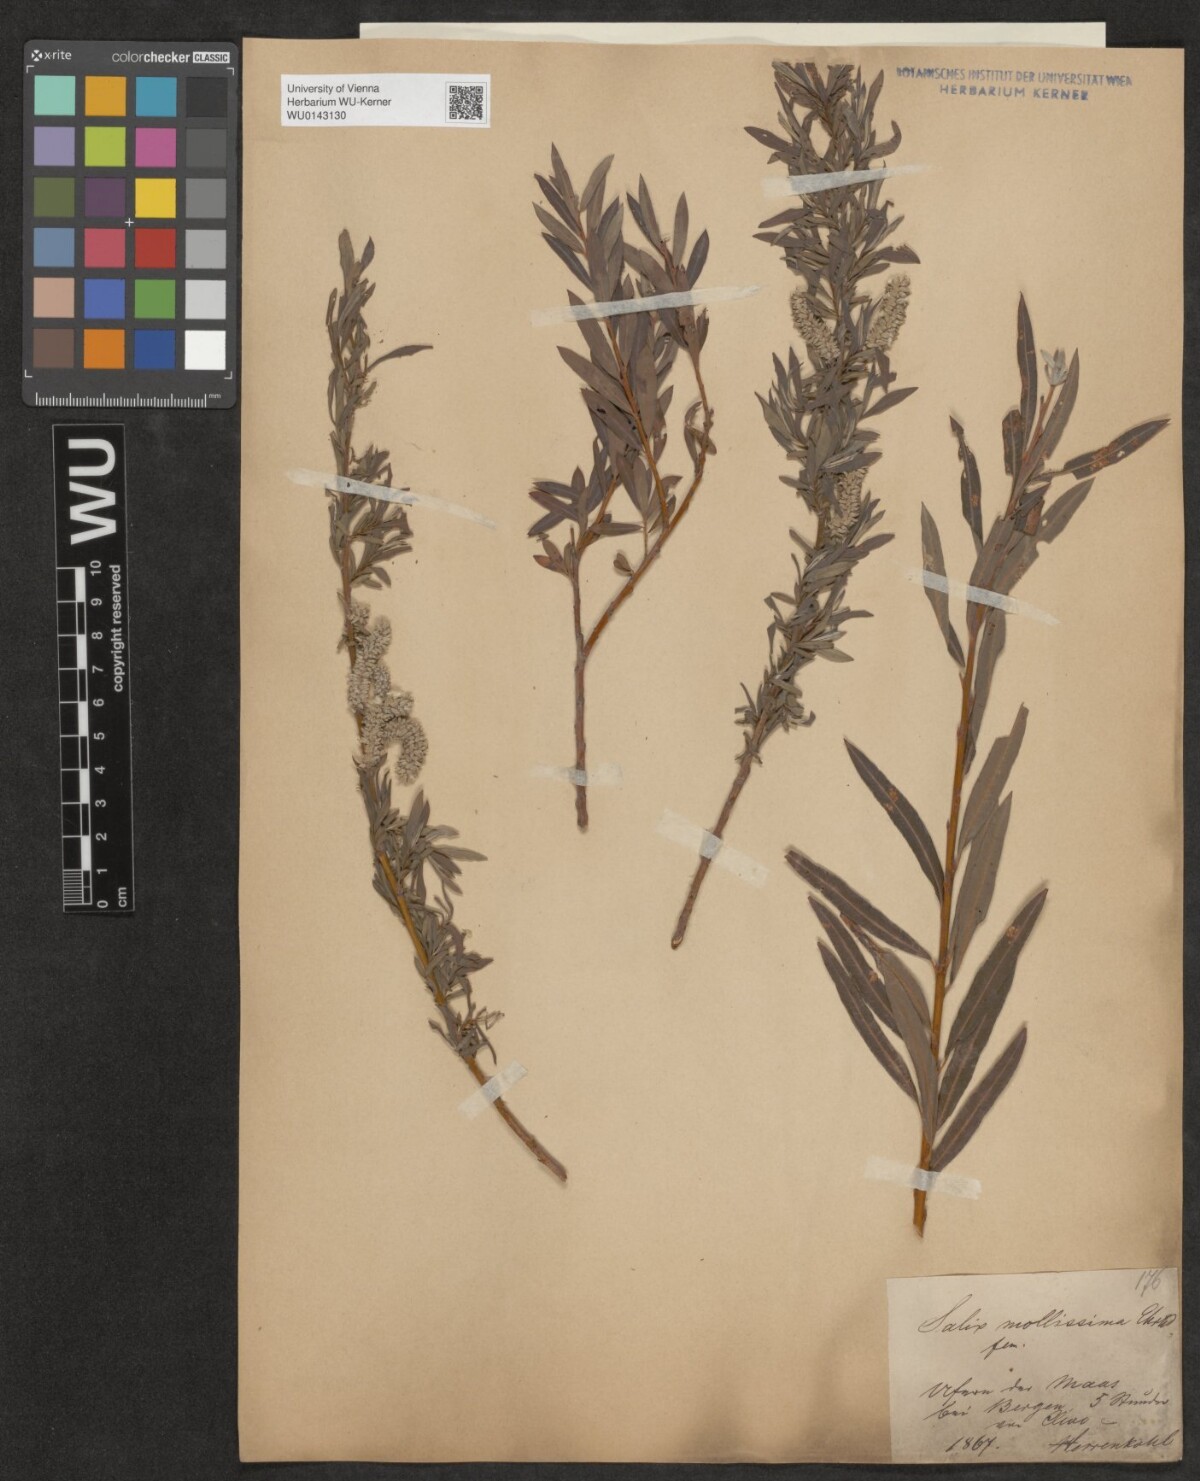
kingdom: Plantae
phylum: Tracheophyta
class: Magnoliopsida
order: Malpighiales
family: Salicaceae
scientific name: Salicaceae
